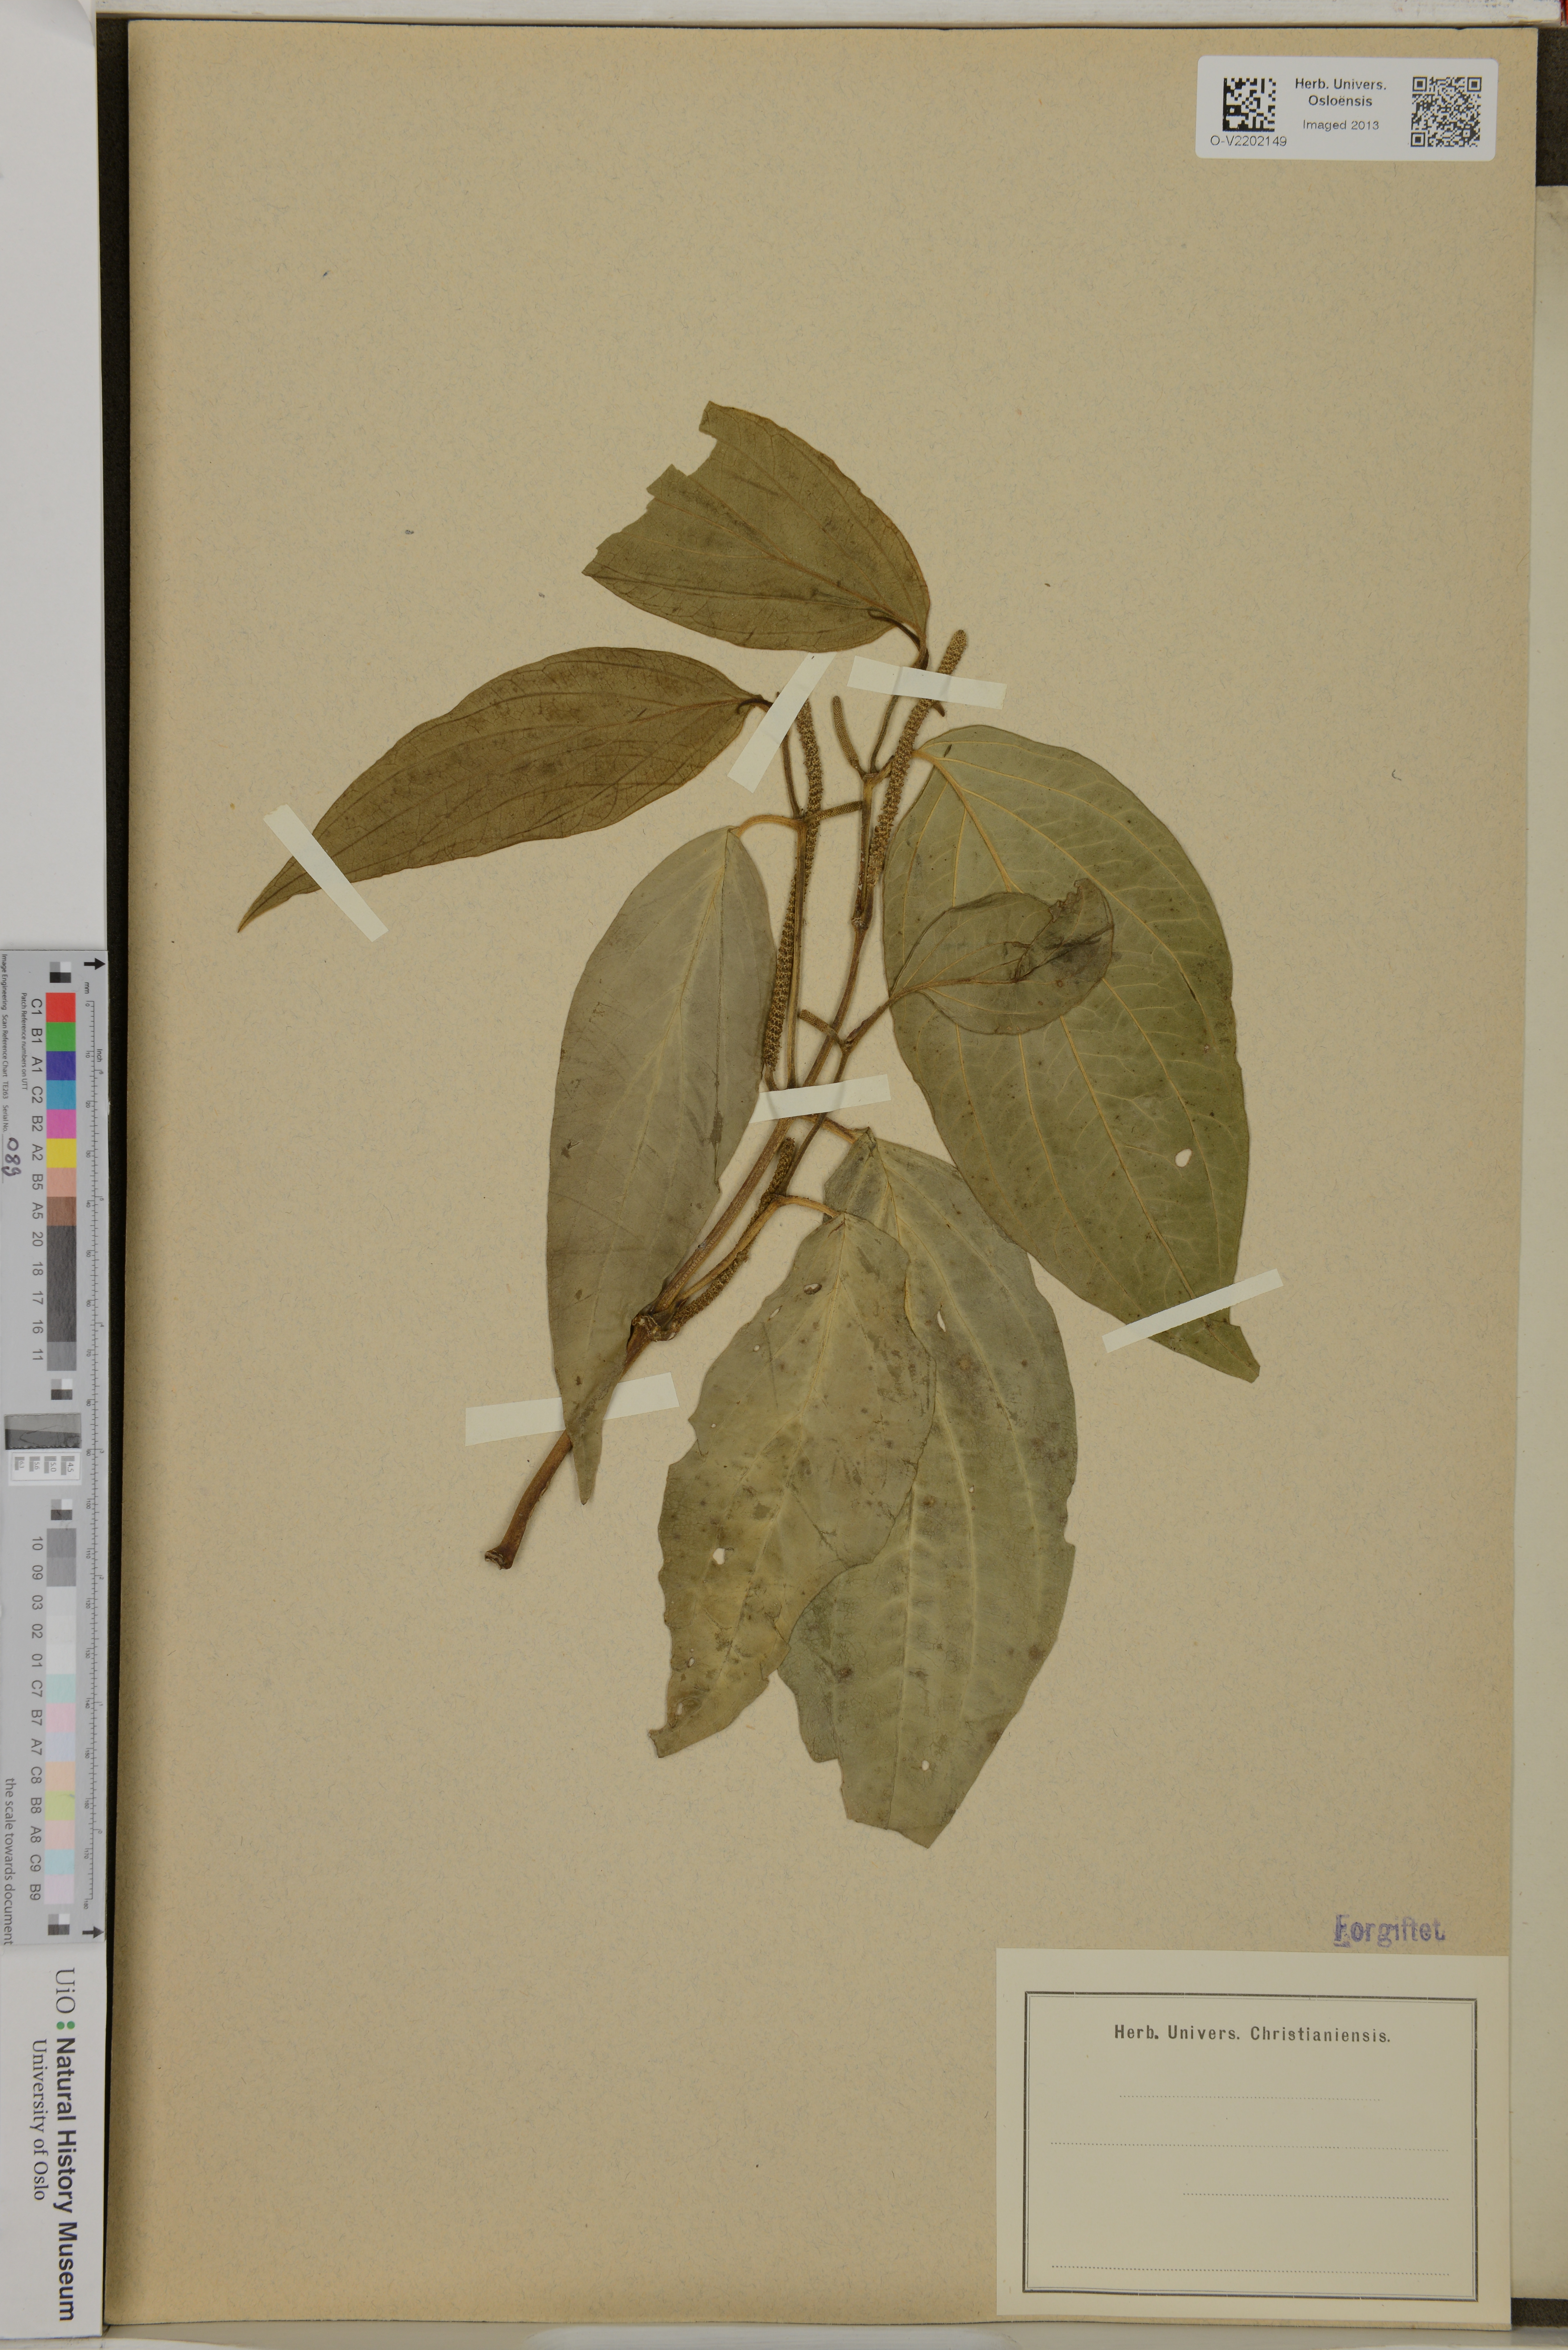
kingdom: Plantae
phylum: Tracheophyta
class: Magnoliopsida
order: Piperales
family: Piperaceae
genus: Piper
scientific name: Piper secundum
